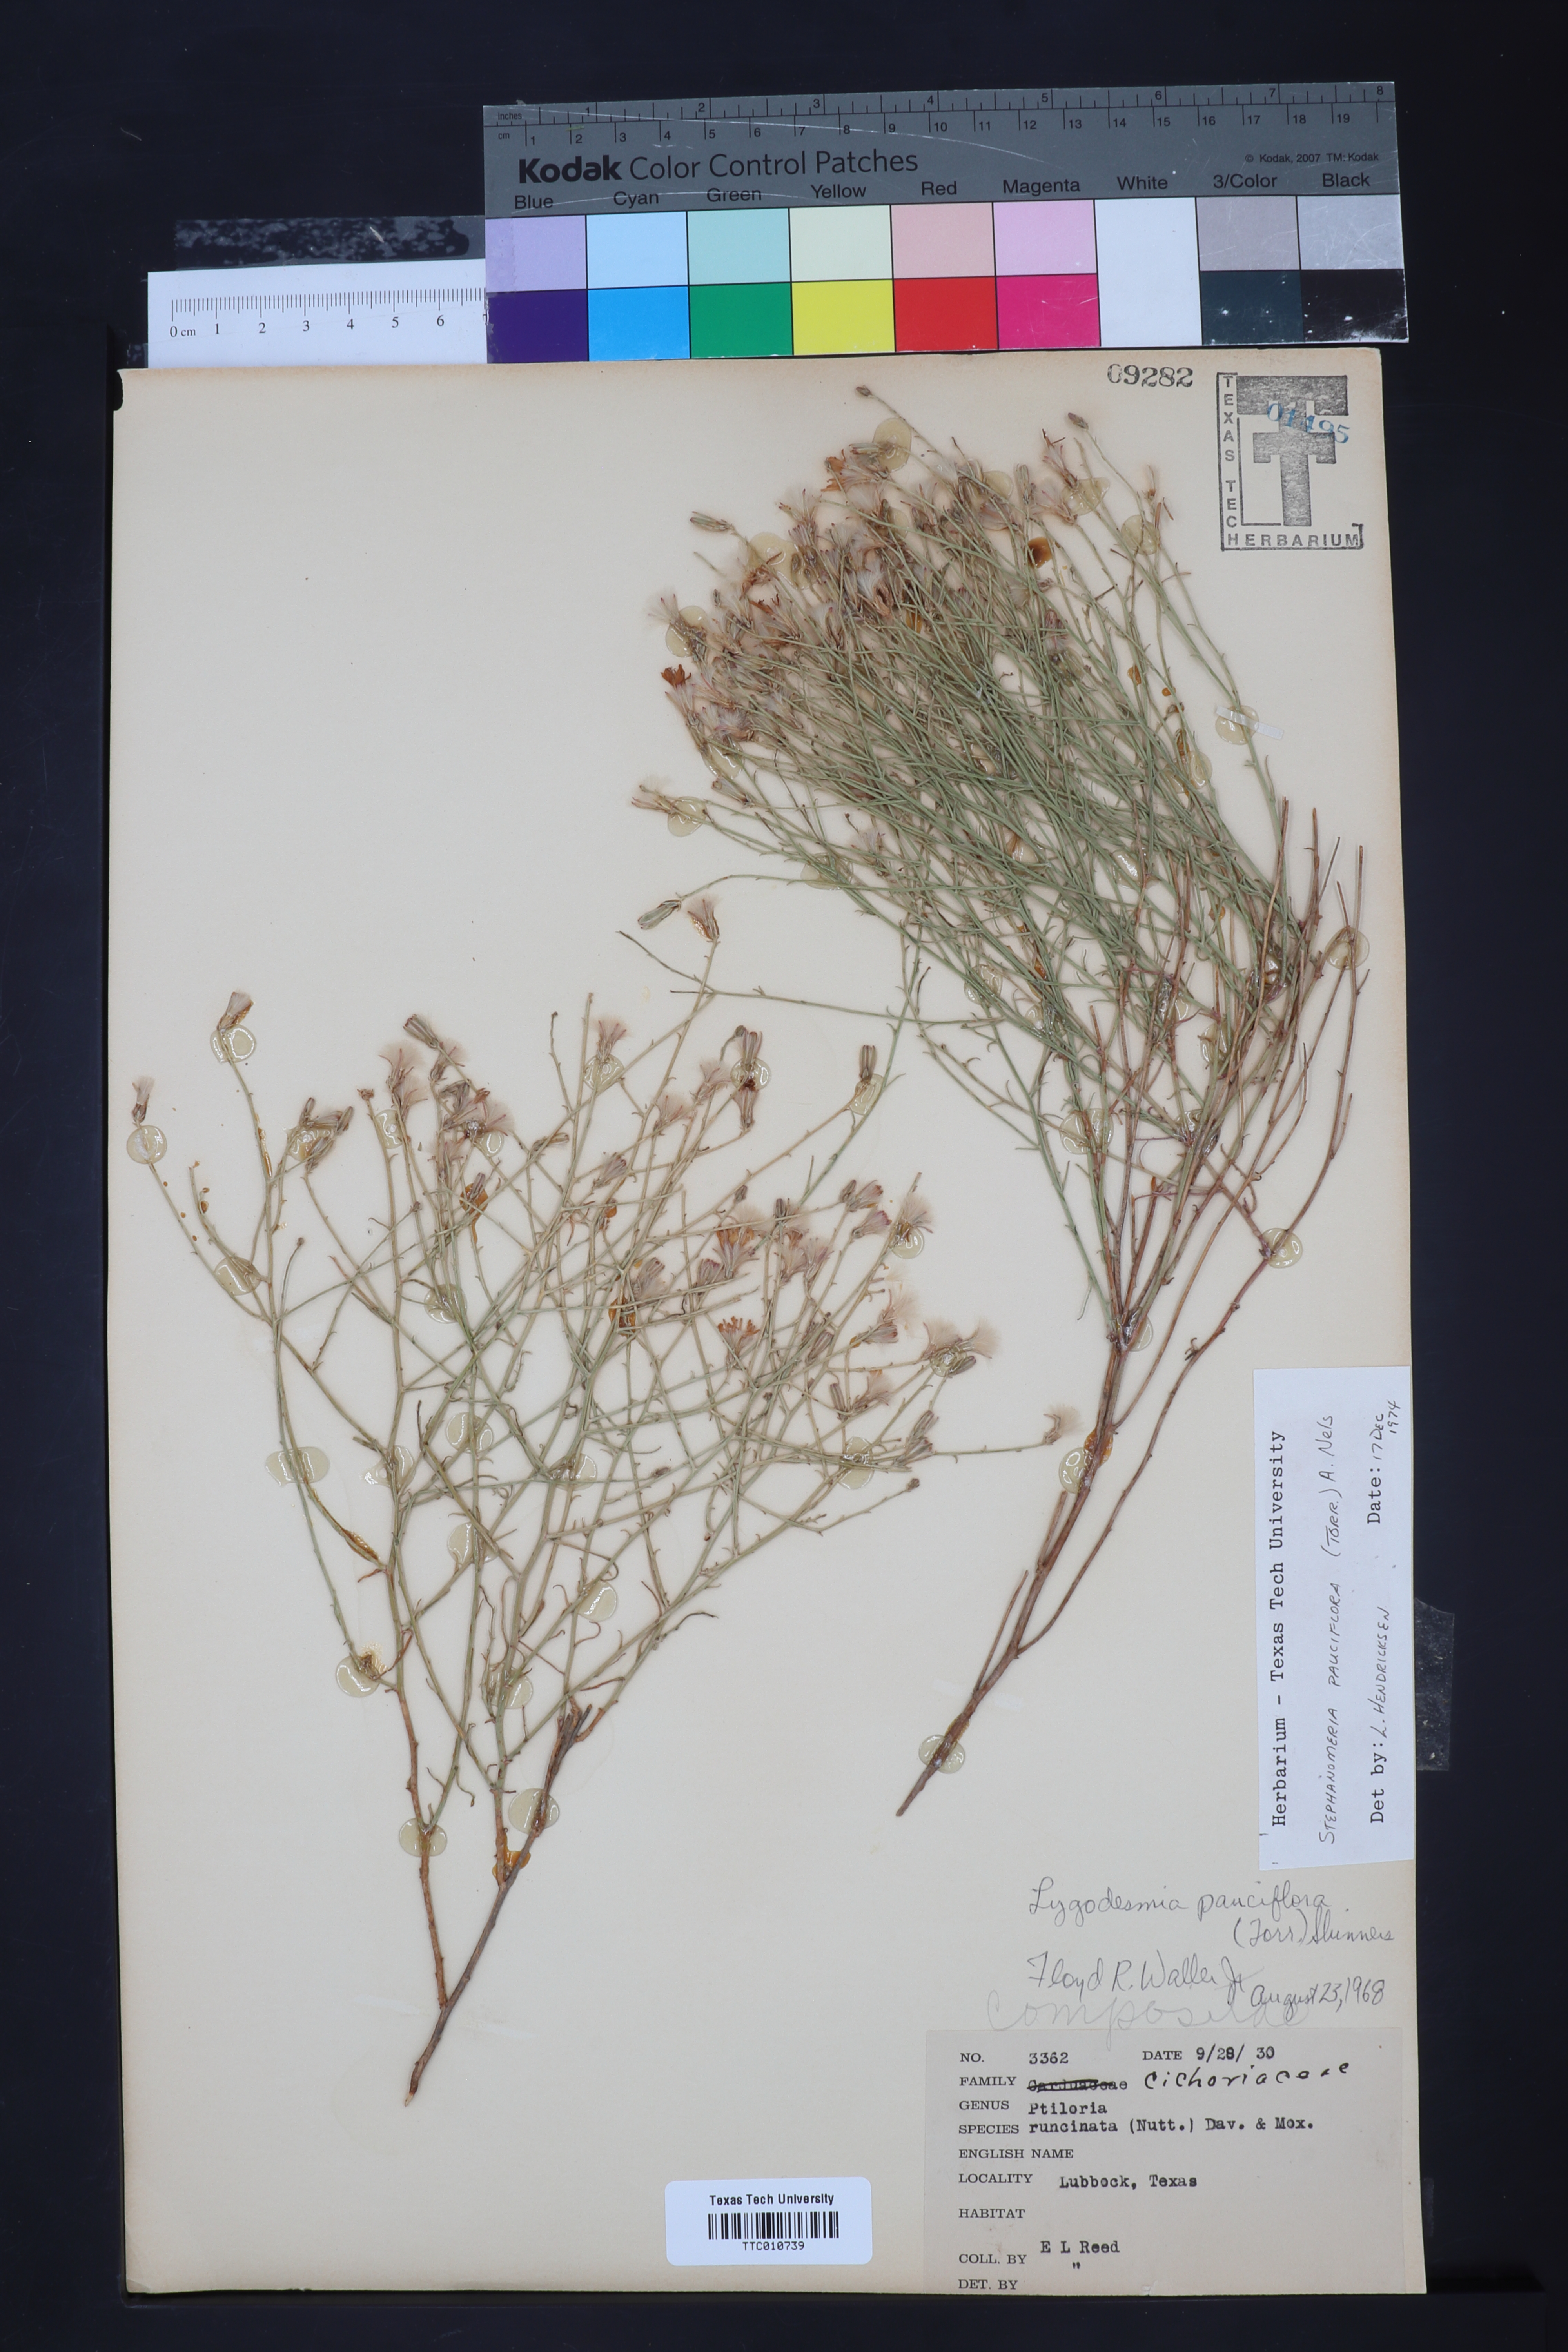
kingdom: Plantae
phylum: Tracheophyta
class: Magnoliopsida
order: Asterales
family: Asteraceae
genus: Stephanomeria
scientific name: Stephanomeria pauciflora
